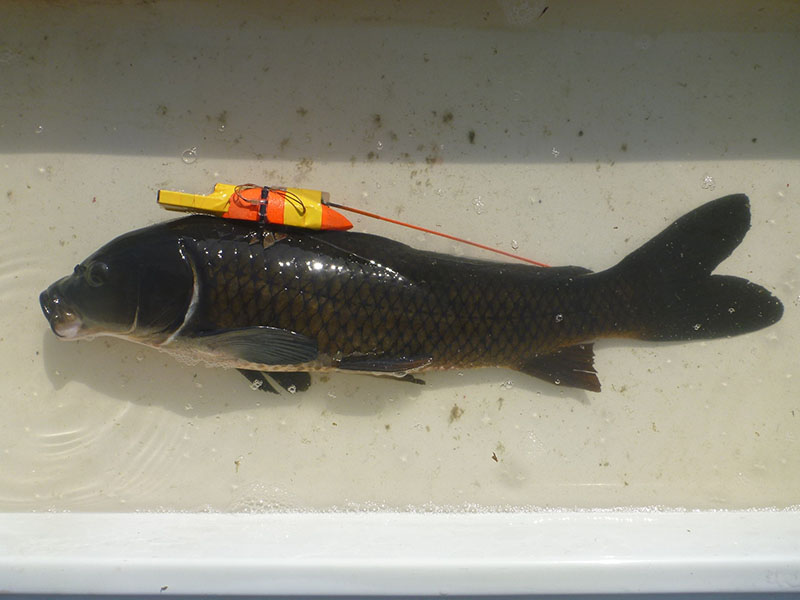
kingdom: Animalia
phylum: Chordata
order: Cypriniformes
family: Cyprinidae
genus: Cyprinus
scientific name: Cyprinus carpio
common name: コイ
